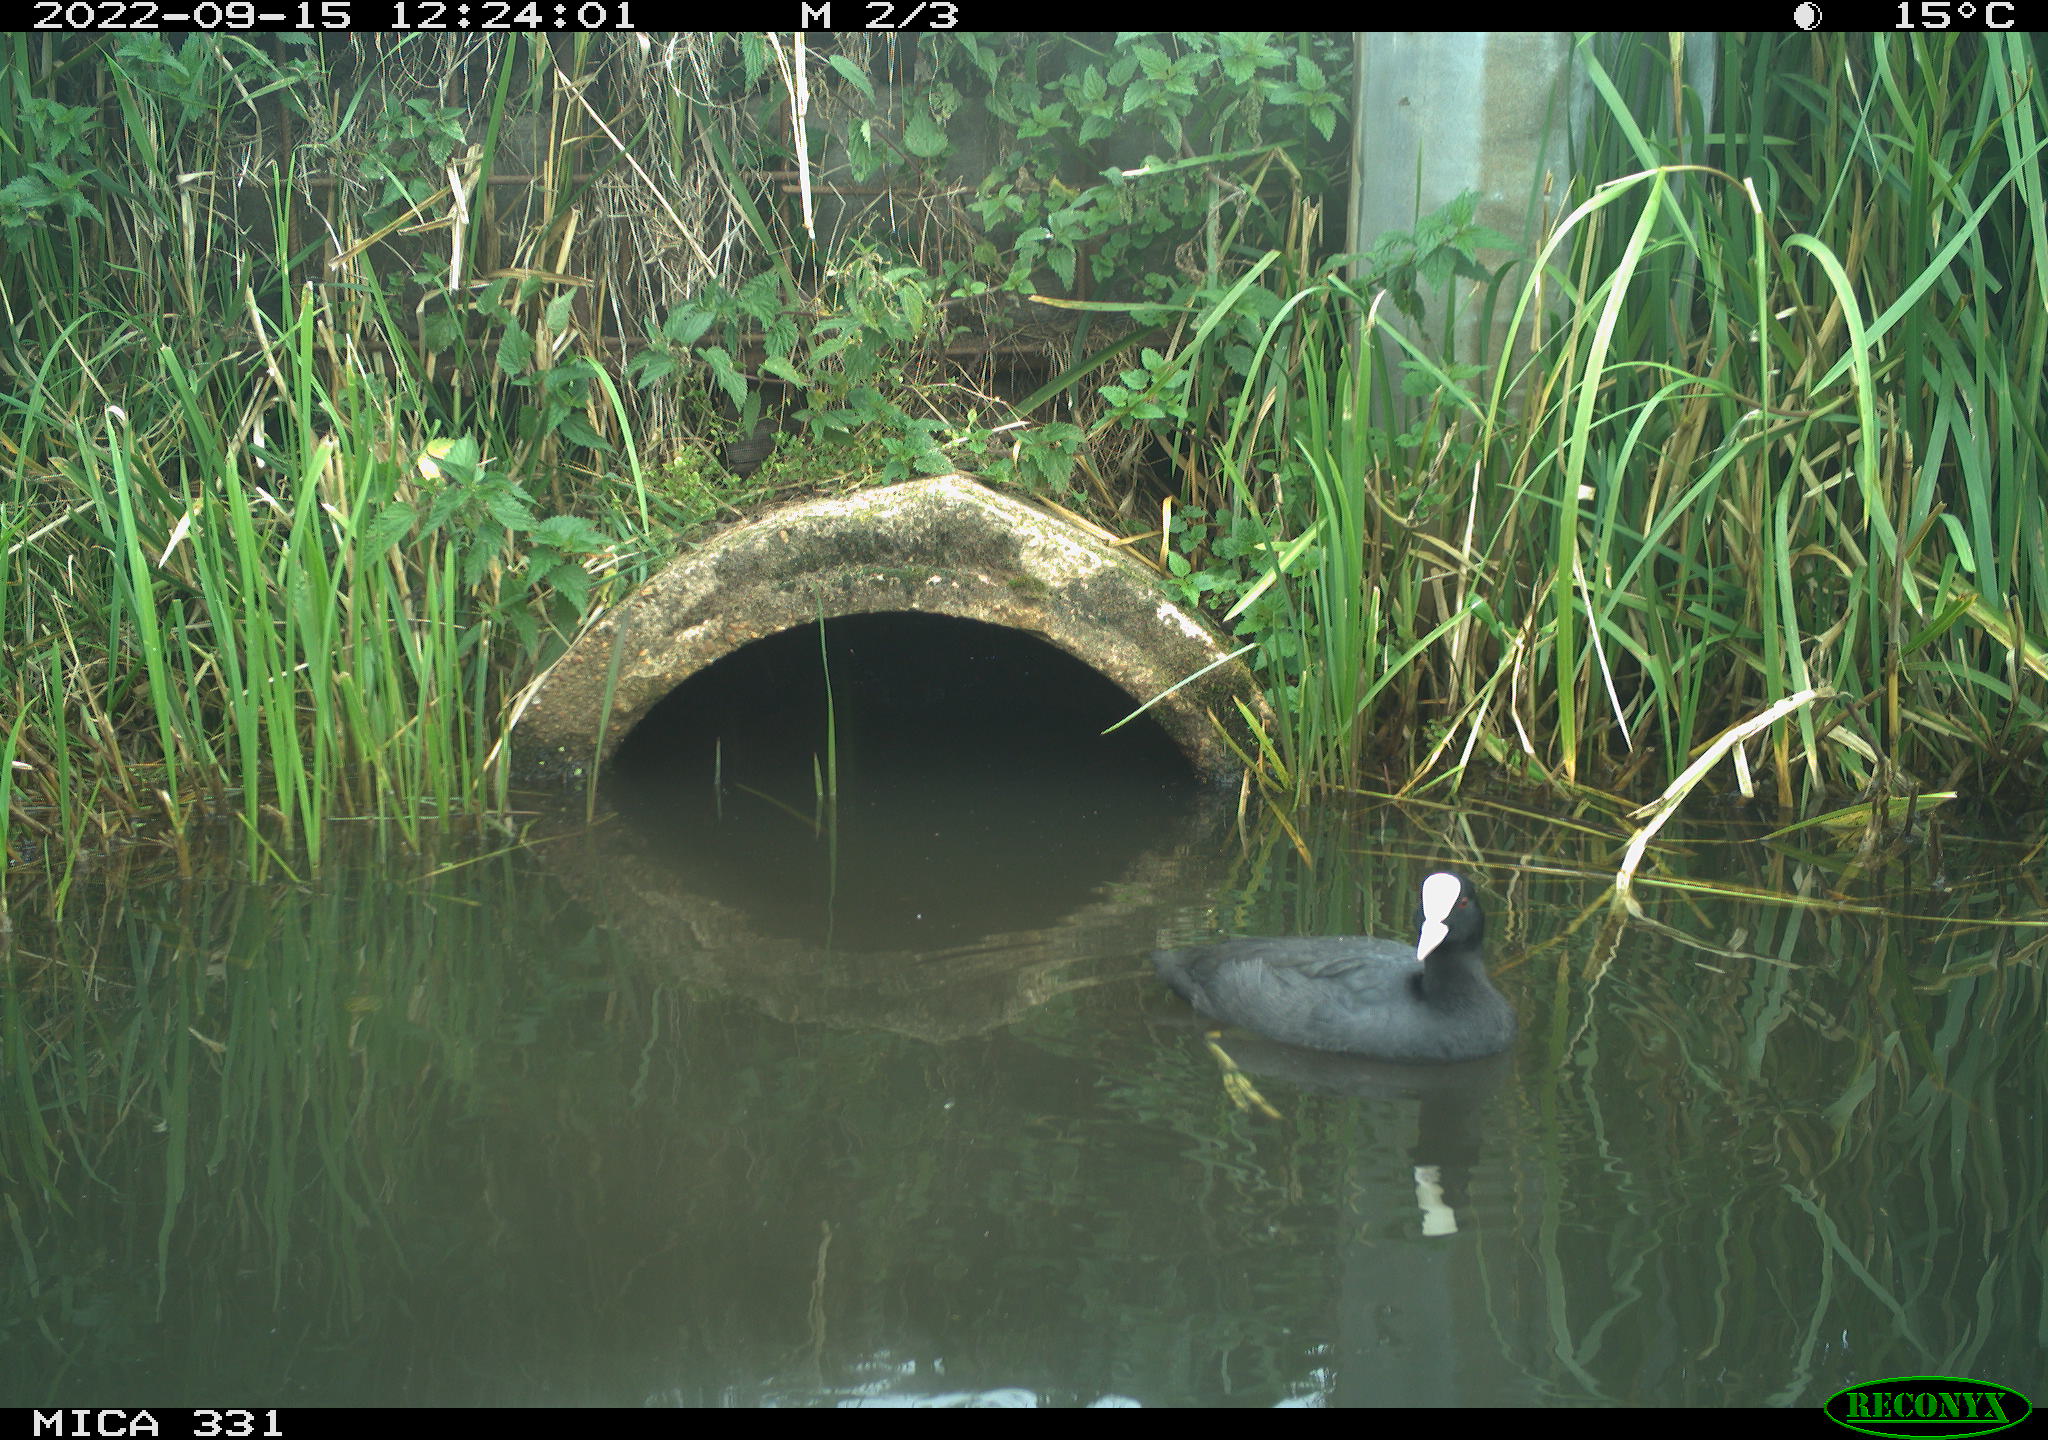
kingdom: Animalia
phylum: Chordata
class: Aves
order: Gruiformes
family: Rallidae
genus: Fulica
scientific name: Fulica atra
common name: Eurasian coot
